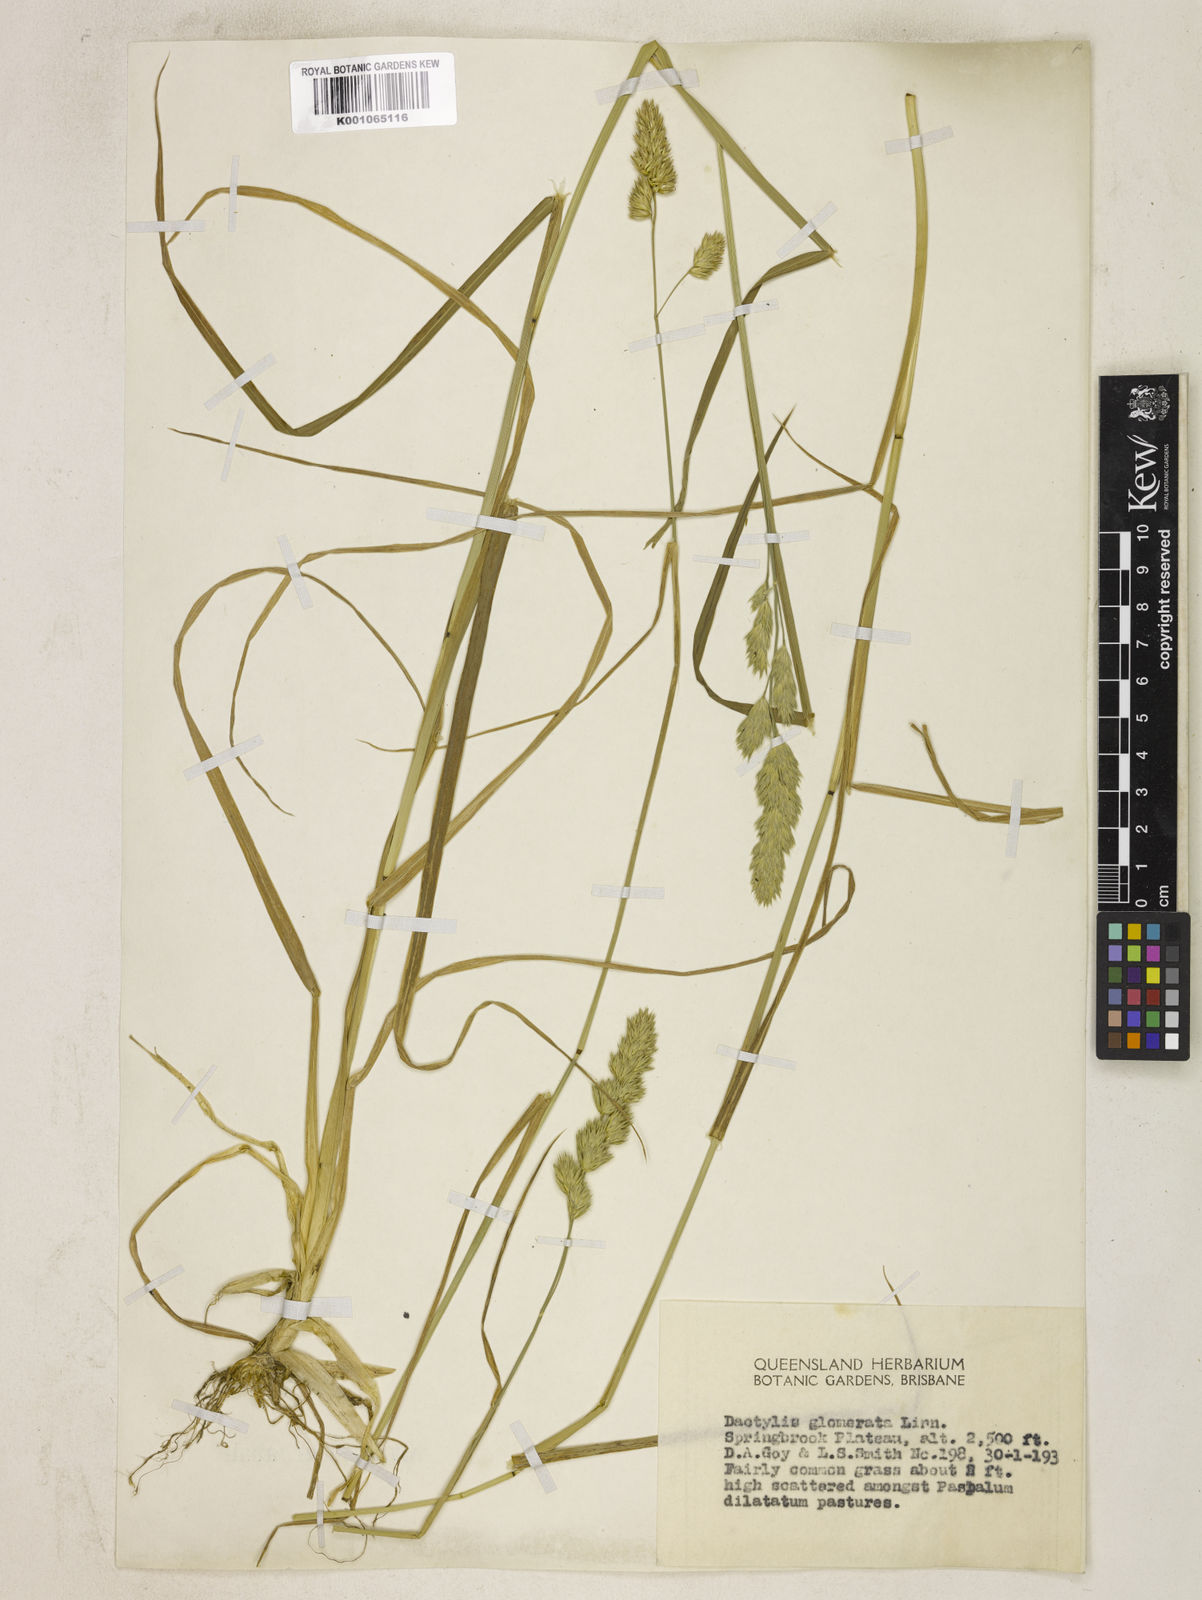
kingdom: Plantae
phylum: Tracheophyta
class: Liliopsida
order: Poales
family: Poaceae
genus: Dactylis
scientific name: Dactylis glomerata
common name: Orchardgrass
